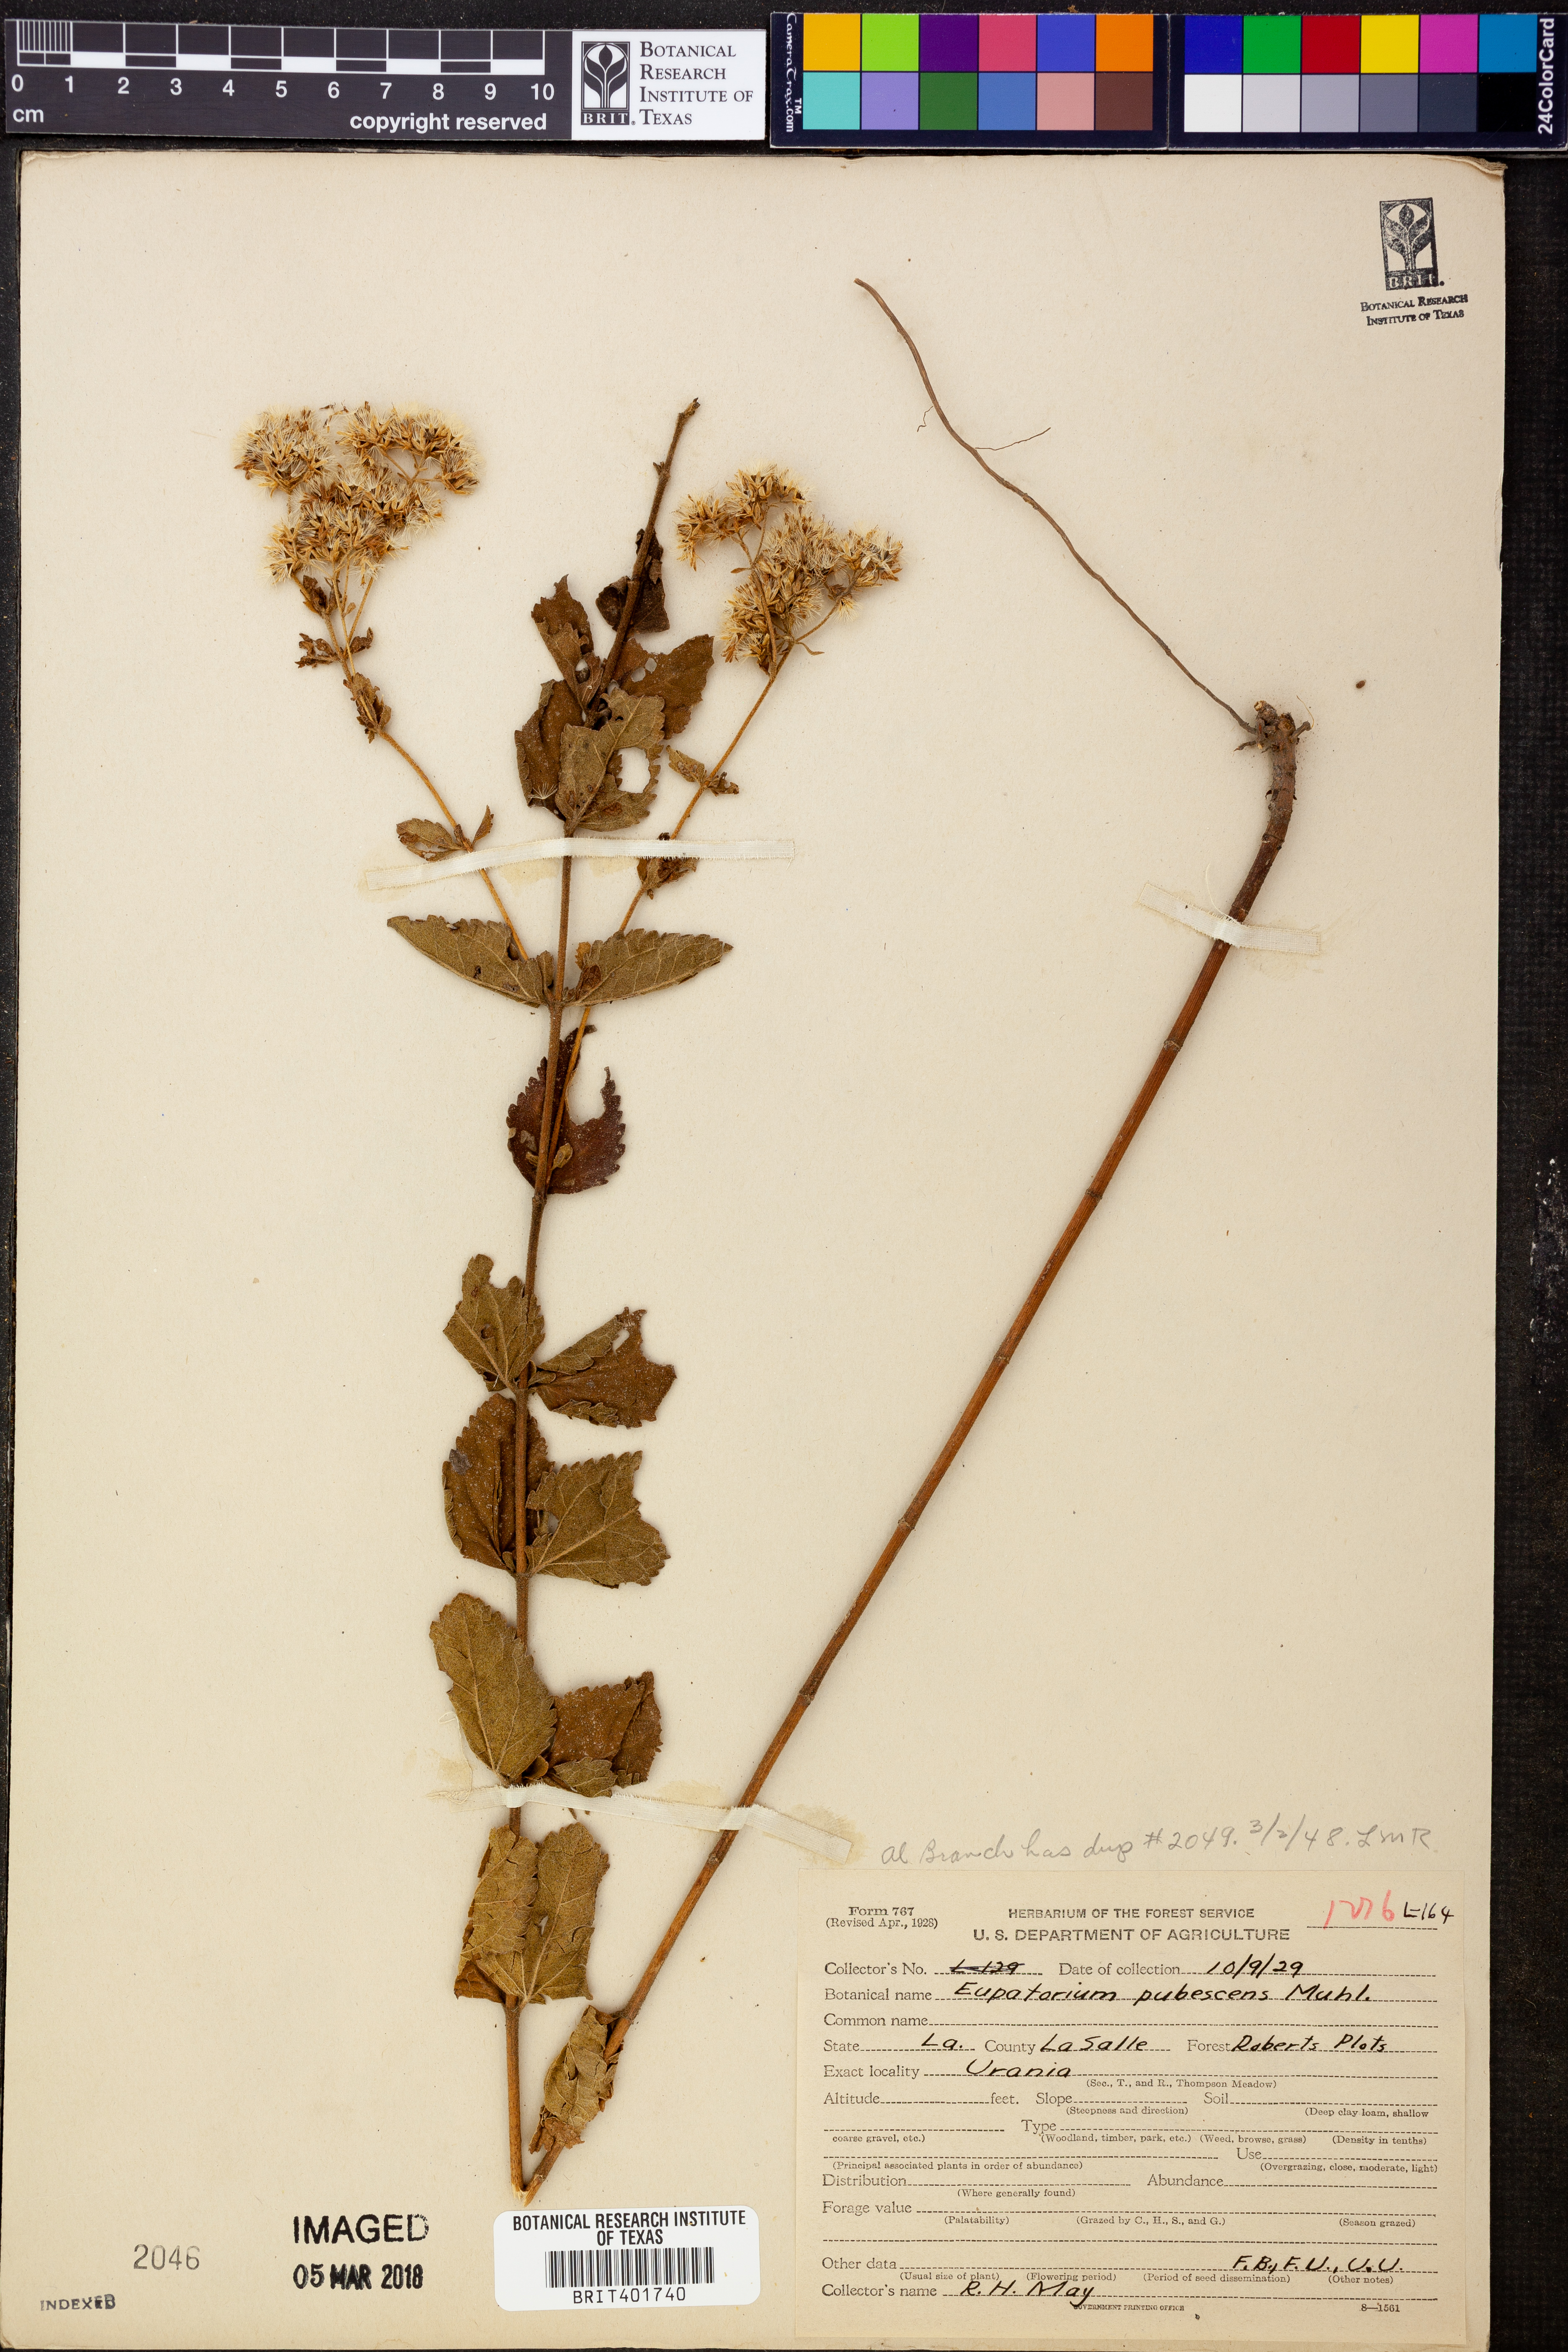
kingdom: Plantae
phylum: Tracheophyta
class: Magnoliopsida
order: Asterales
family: Asteraceae
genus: Eupatorium
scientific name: Eupatorium rotundifolium
